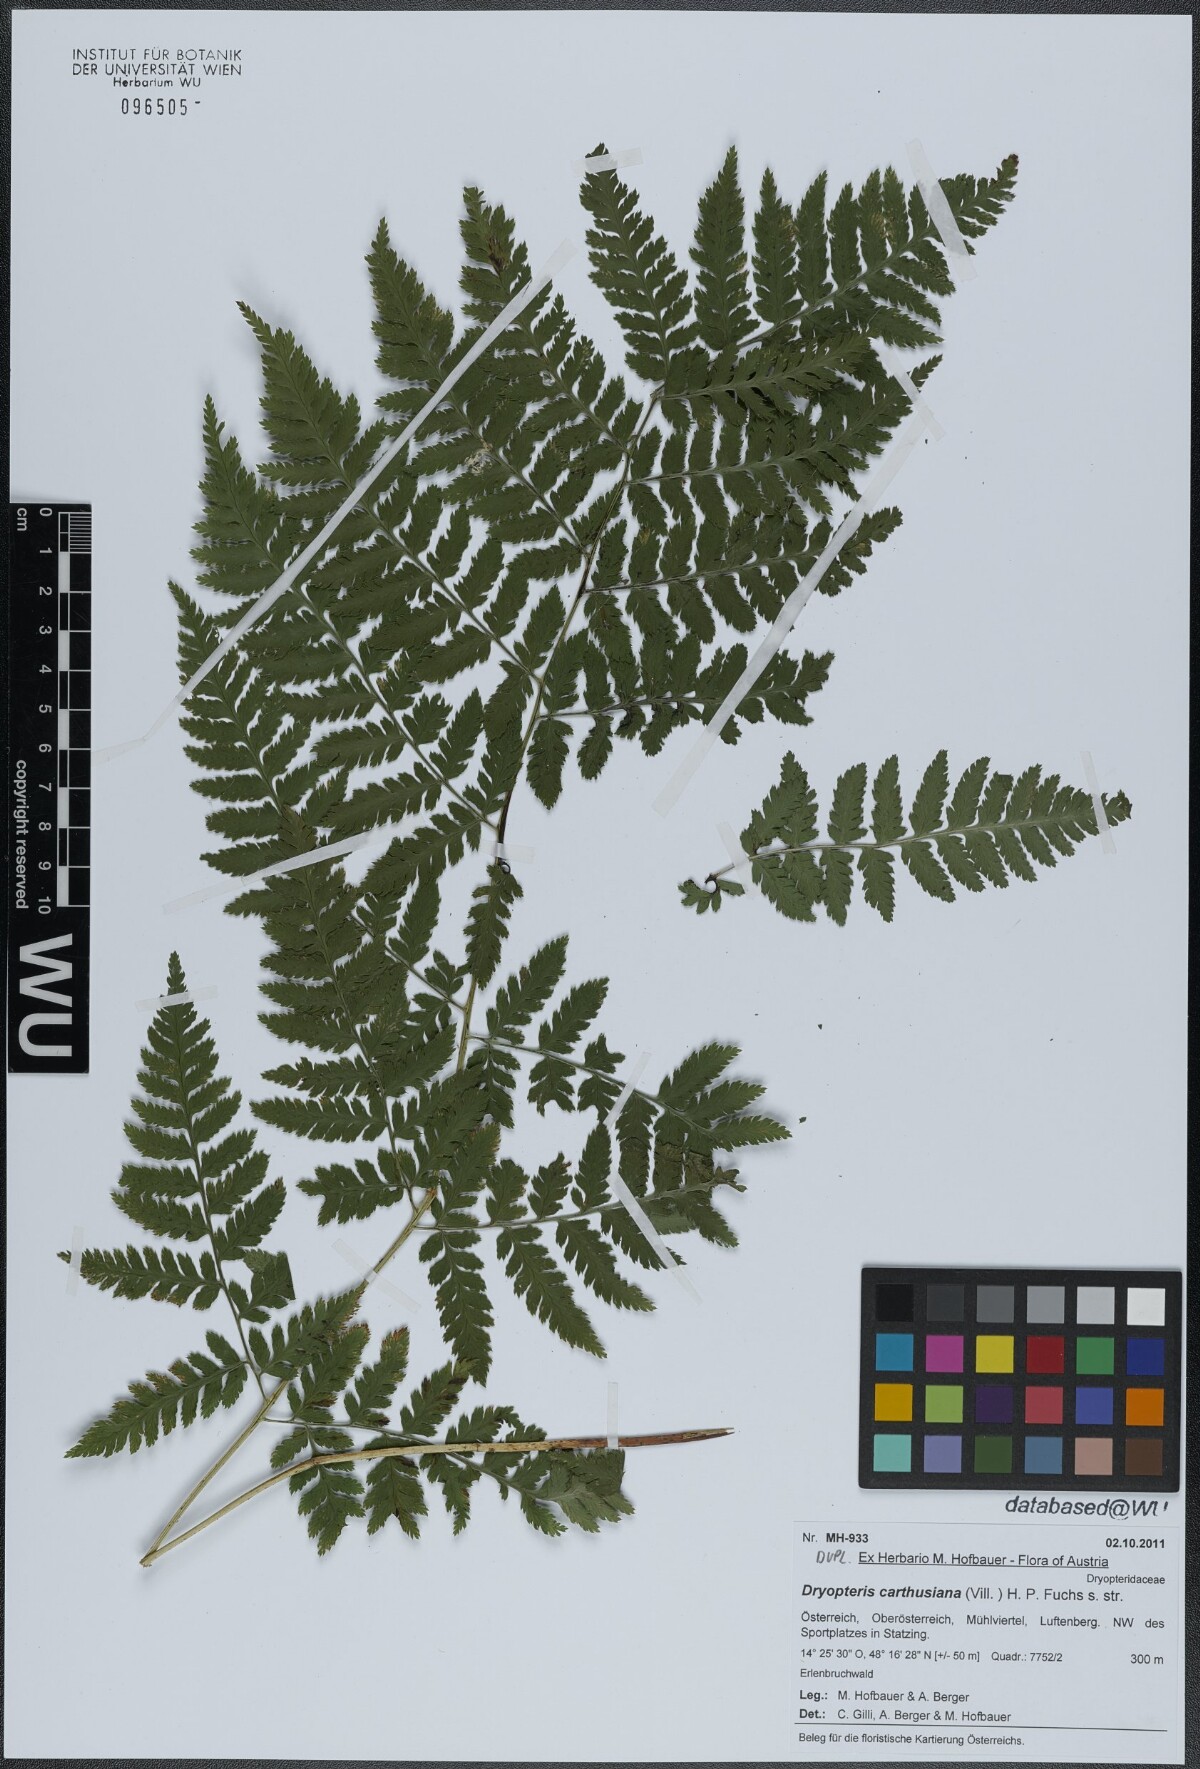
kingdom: Plantae
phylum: Tracheophyta
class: Polypodiopsida
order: Polypodiales
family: Dryopteridaceae
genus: Dryopteris
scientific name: Dryopteris carthusiana
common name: Narrow buckler-fern
